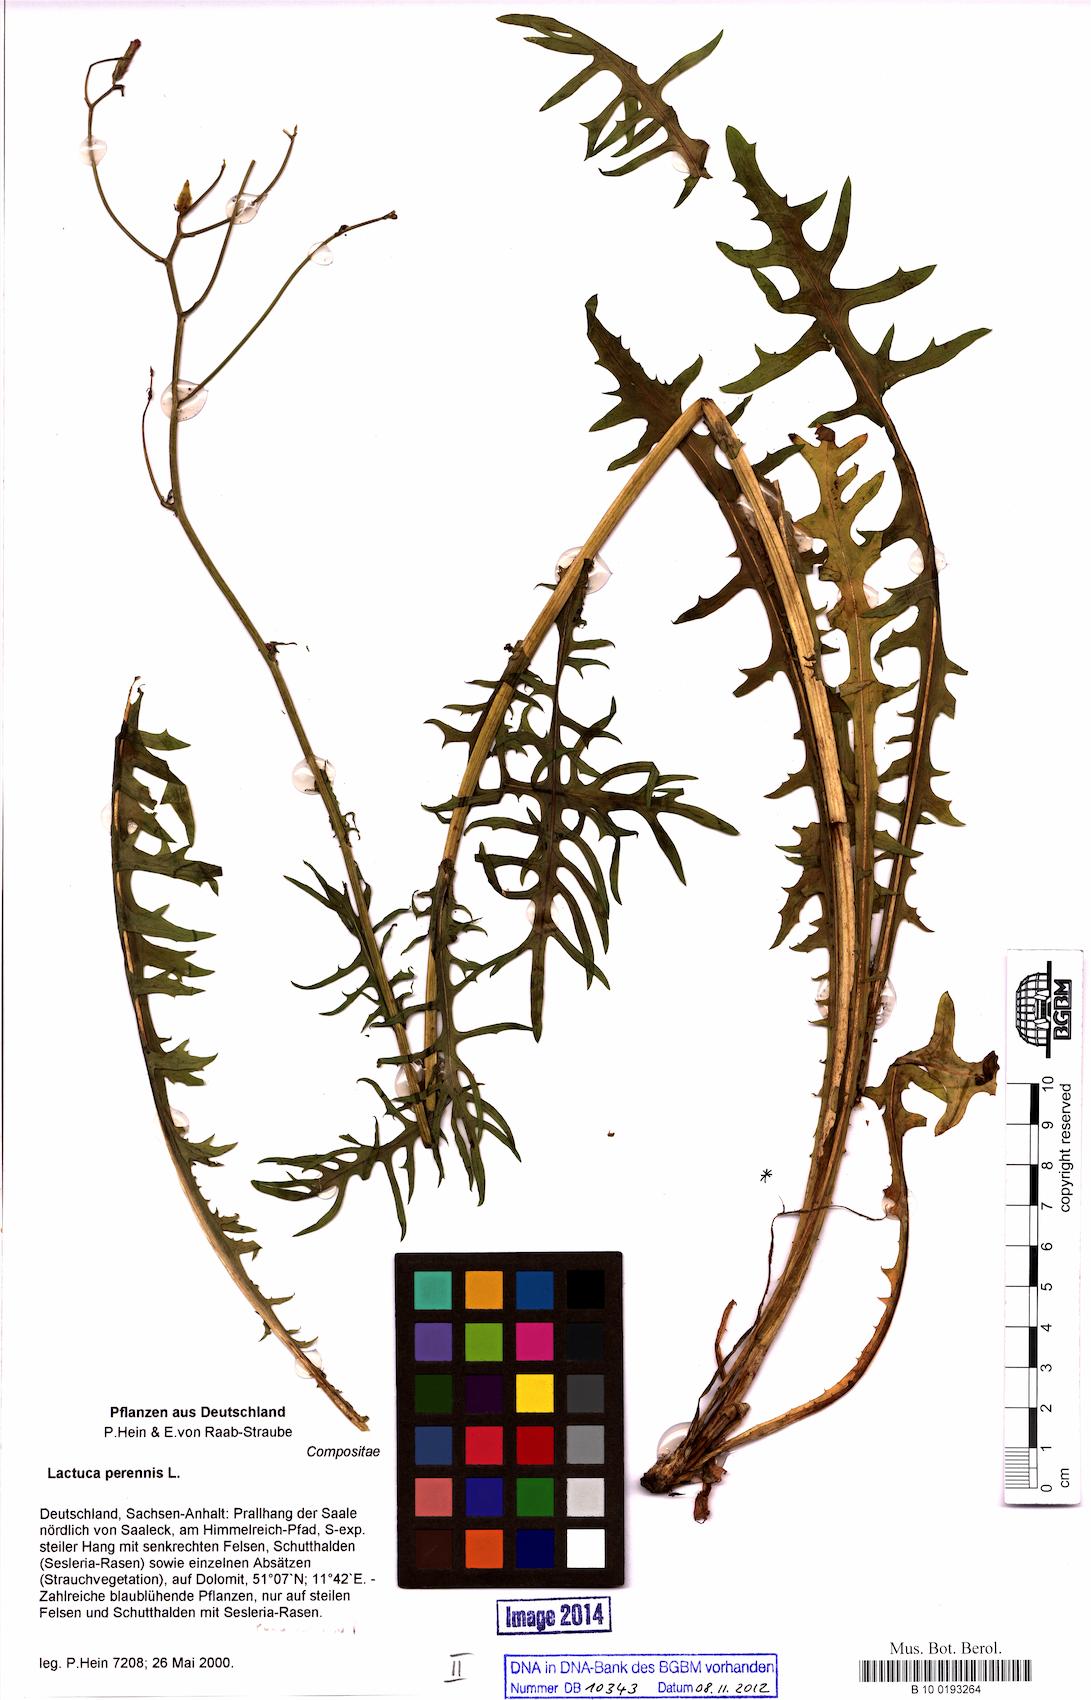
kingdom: Plantae
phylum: Tracheophyta
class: Magnoliopsida
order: Asterales
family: Asteraceae
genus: Lactuca
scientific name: Lactuca perennis
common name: Mountain lettuce
